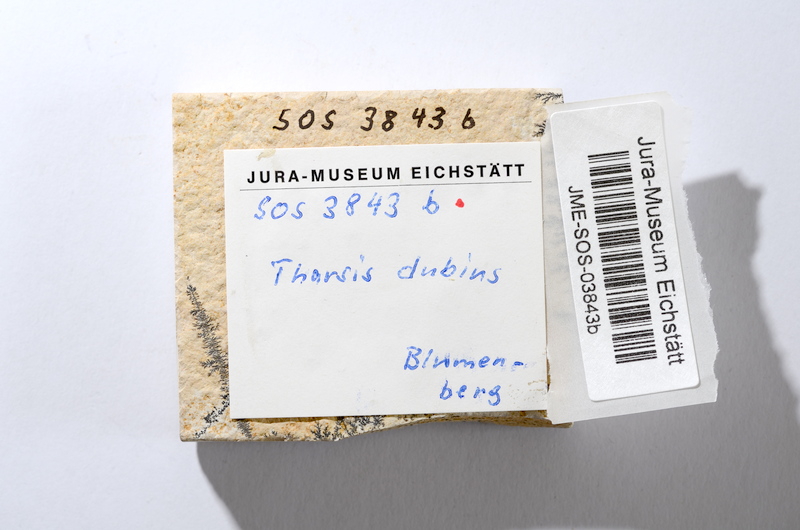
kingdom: Animalia
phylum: Chordata
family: Ascalaboidae
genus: Tharsis
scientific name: Tharsis dubius
